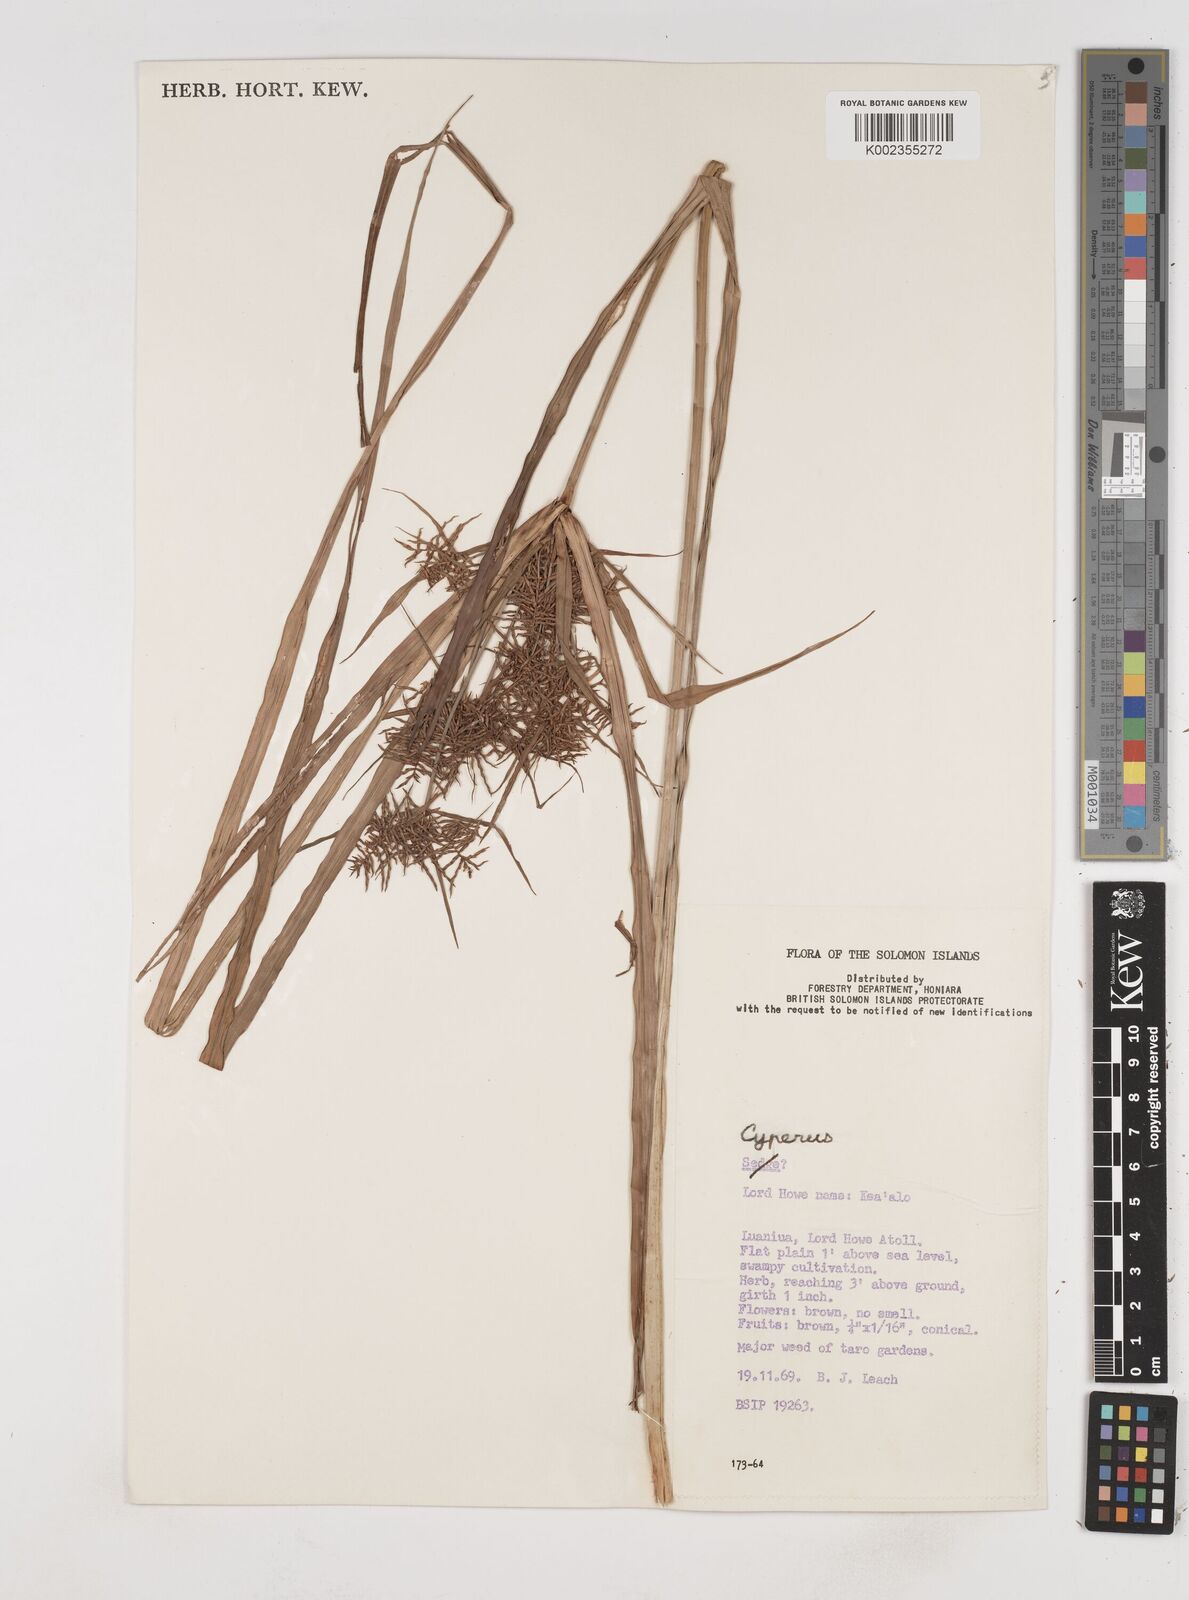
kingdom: Plantae
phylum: Tracheophyta
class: Liliopsida
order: Poales
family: Cyperaceae
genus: Cyperus
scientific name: Cyperus odoratus
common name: Fragrant flatsedge
